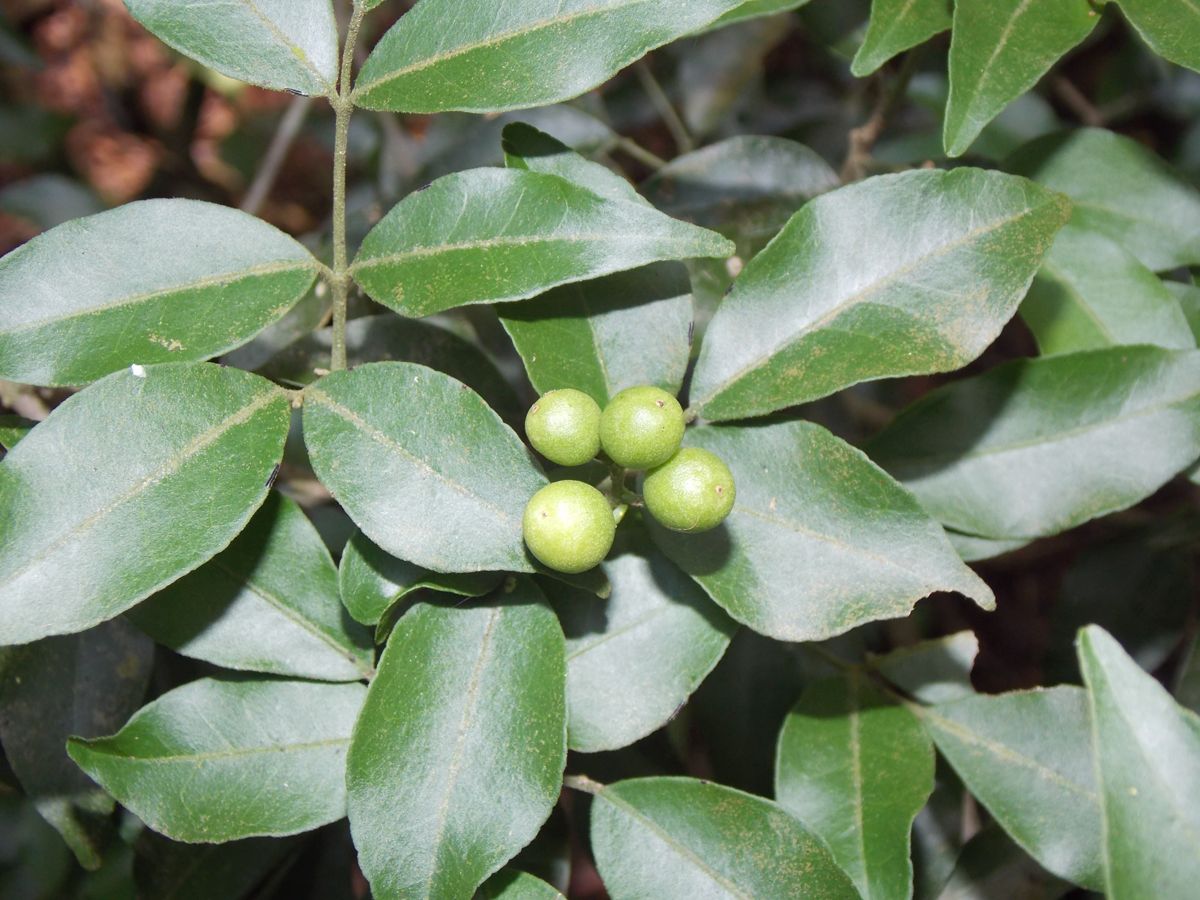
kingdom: Plantae
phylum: Tracheophyta
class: Magnoliopsida
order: Myrtales
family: Myrtaceae
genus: Eugenia
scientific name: Eugenia monticola
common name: Birds berry
